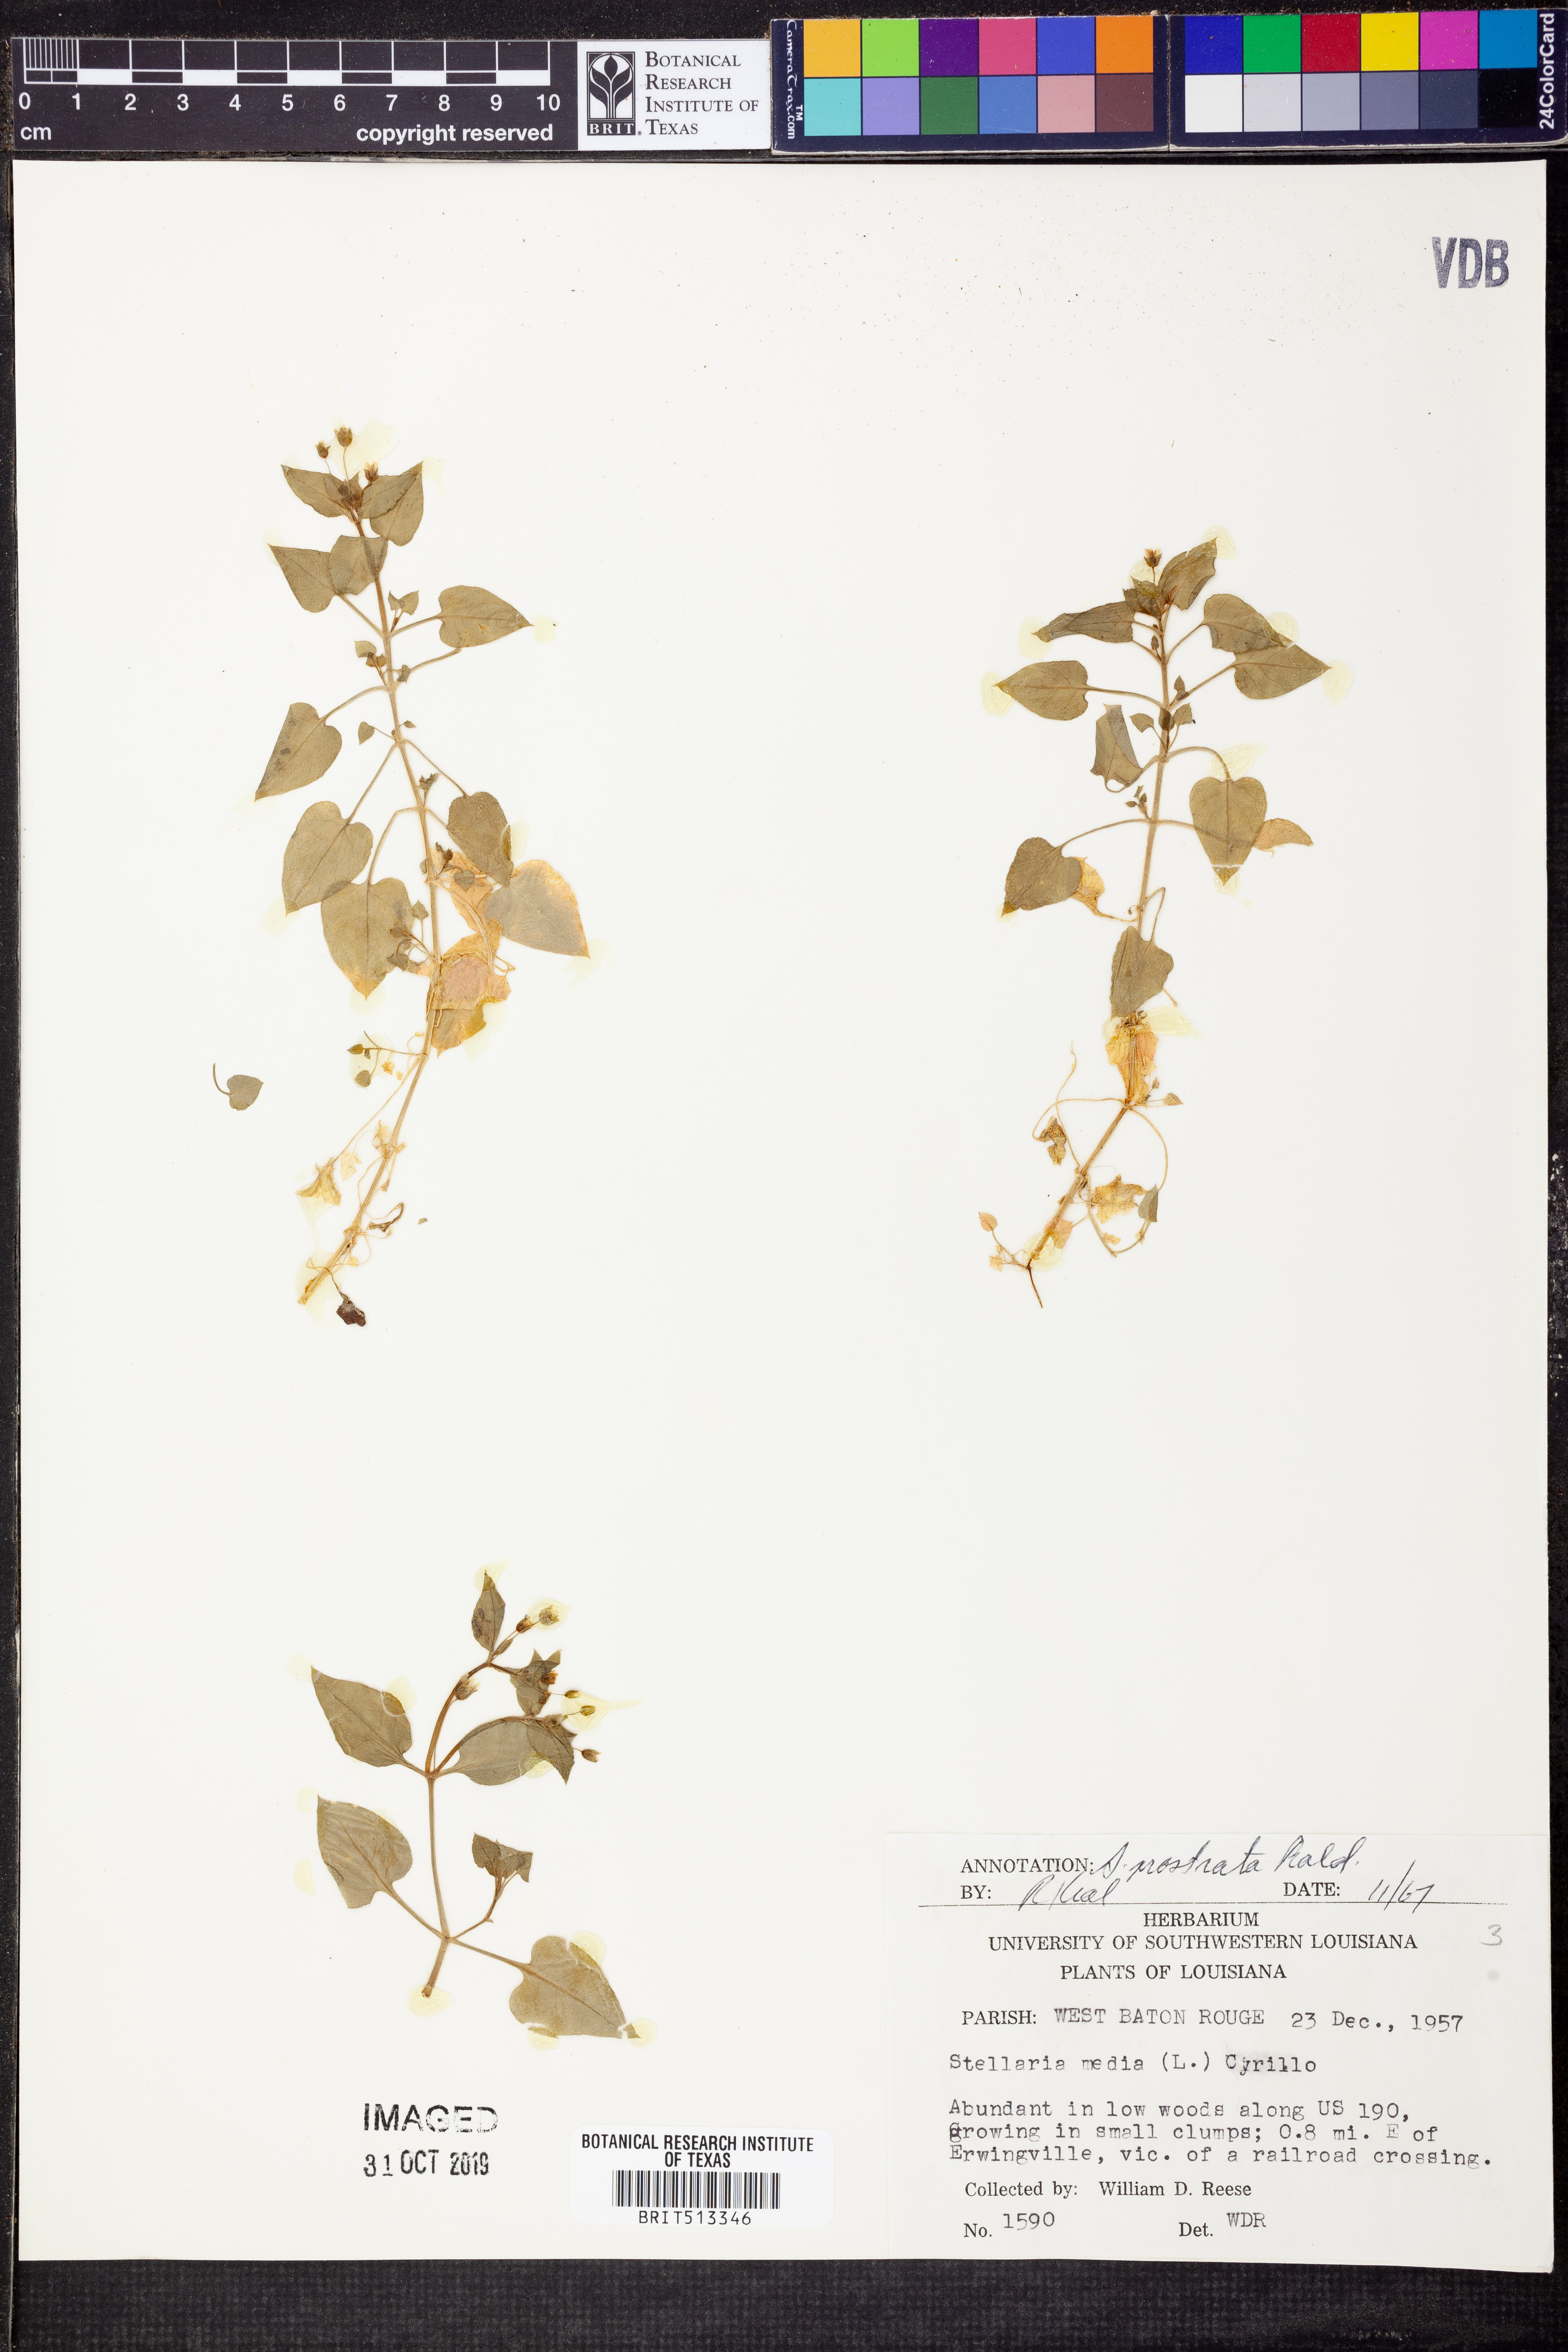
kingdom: Plantae
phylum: Tracheophyta
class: Magnoliopsida
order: Caryophyllales
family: Caryophyllaceae
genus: Stellaria
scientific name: Stellaria media
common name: Common chickweed
